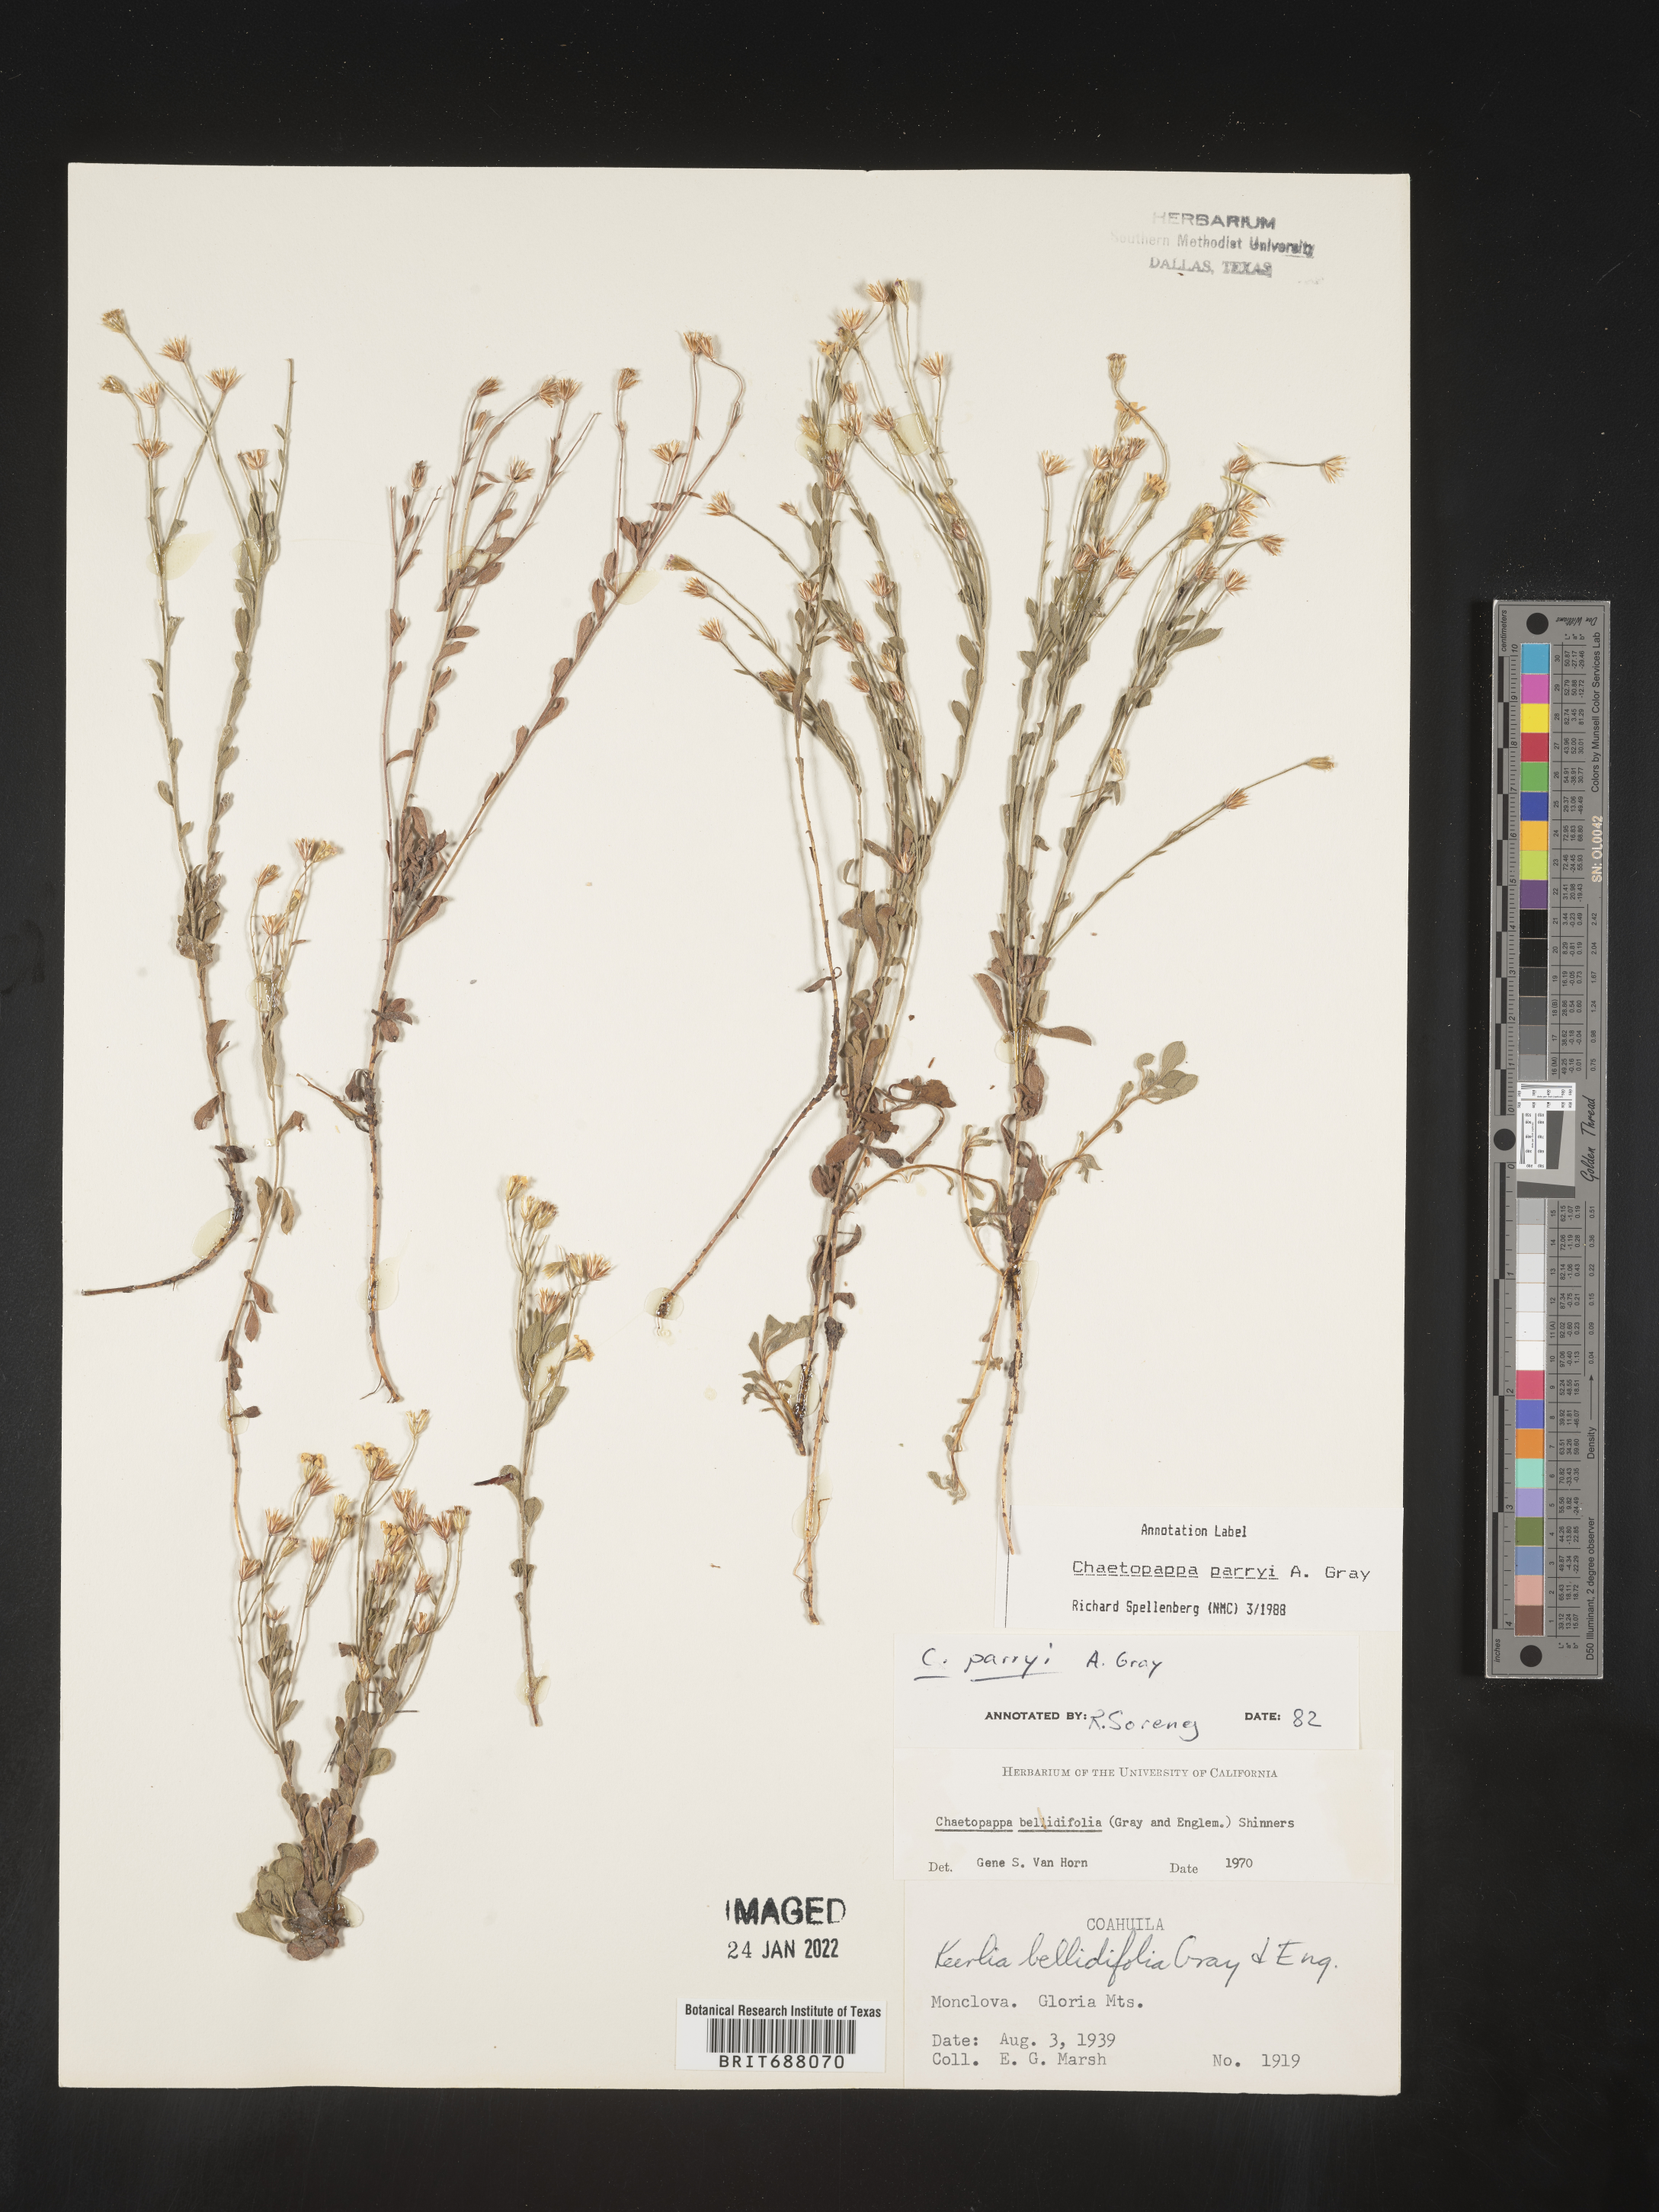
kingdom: Plantae
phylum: Tracheophyta
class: Magnoliopsida
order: Asterales
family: Asteraceae
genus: Chaetopappa
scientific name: Chaetopappa
